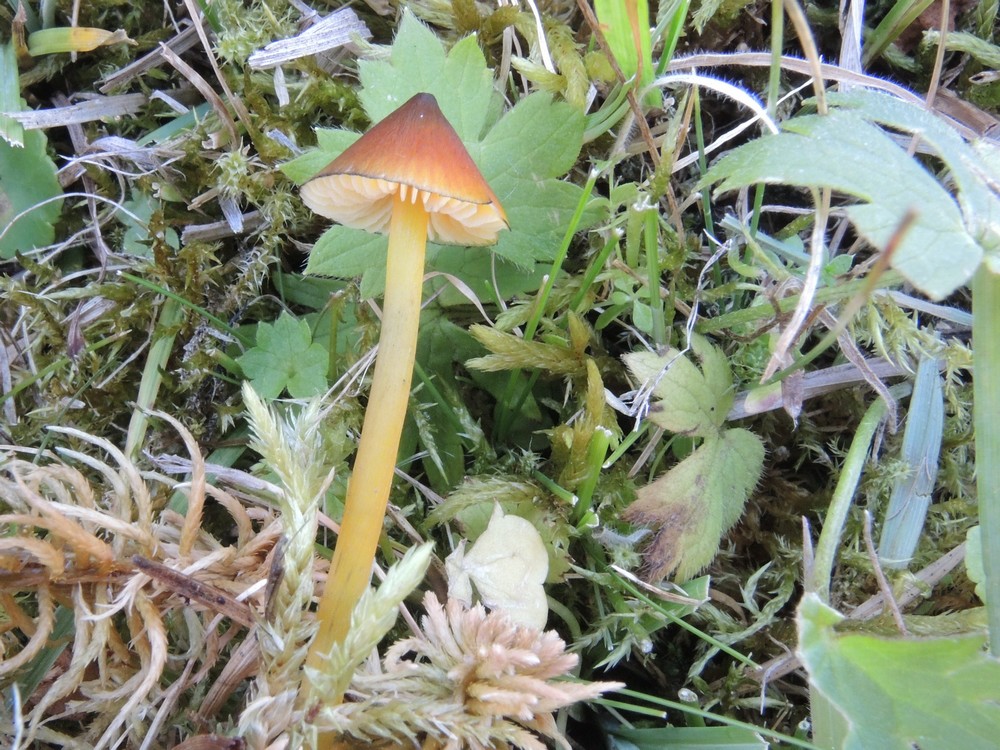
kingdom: Fungi
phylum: Basidiomycota
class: Agaricomycetes
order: Agaricales
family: Hygrophoraceae
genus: Hygrocybe
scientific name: Hygrocybe conica
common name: Blackening wax-cap
